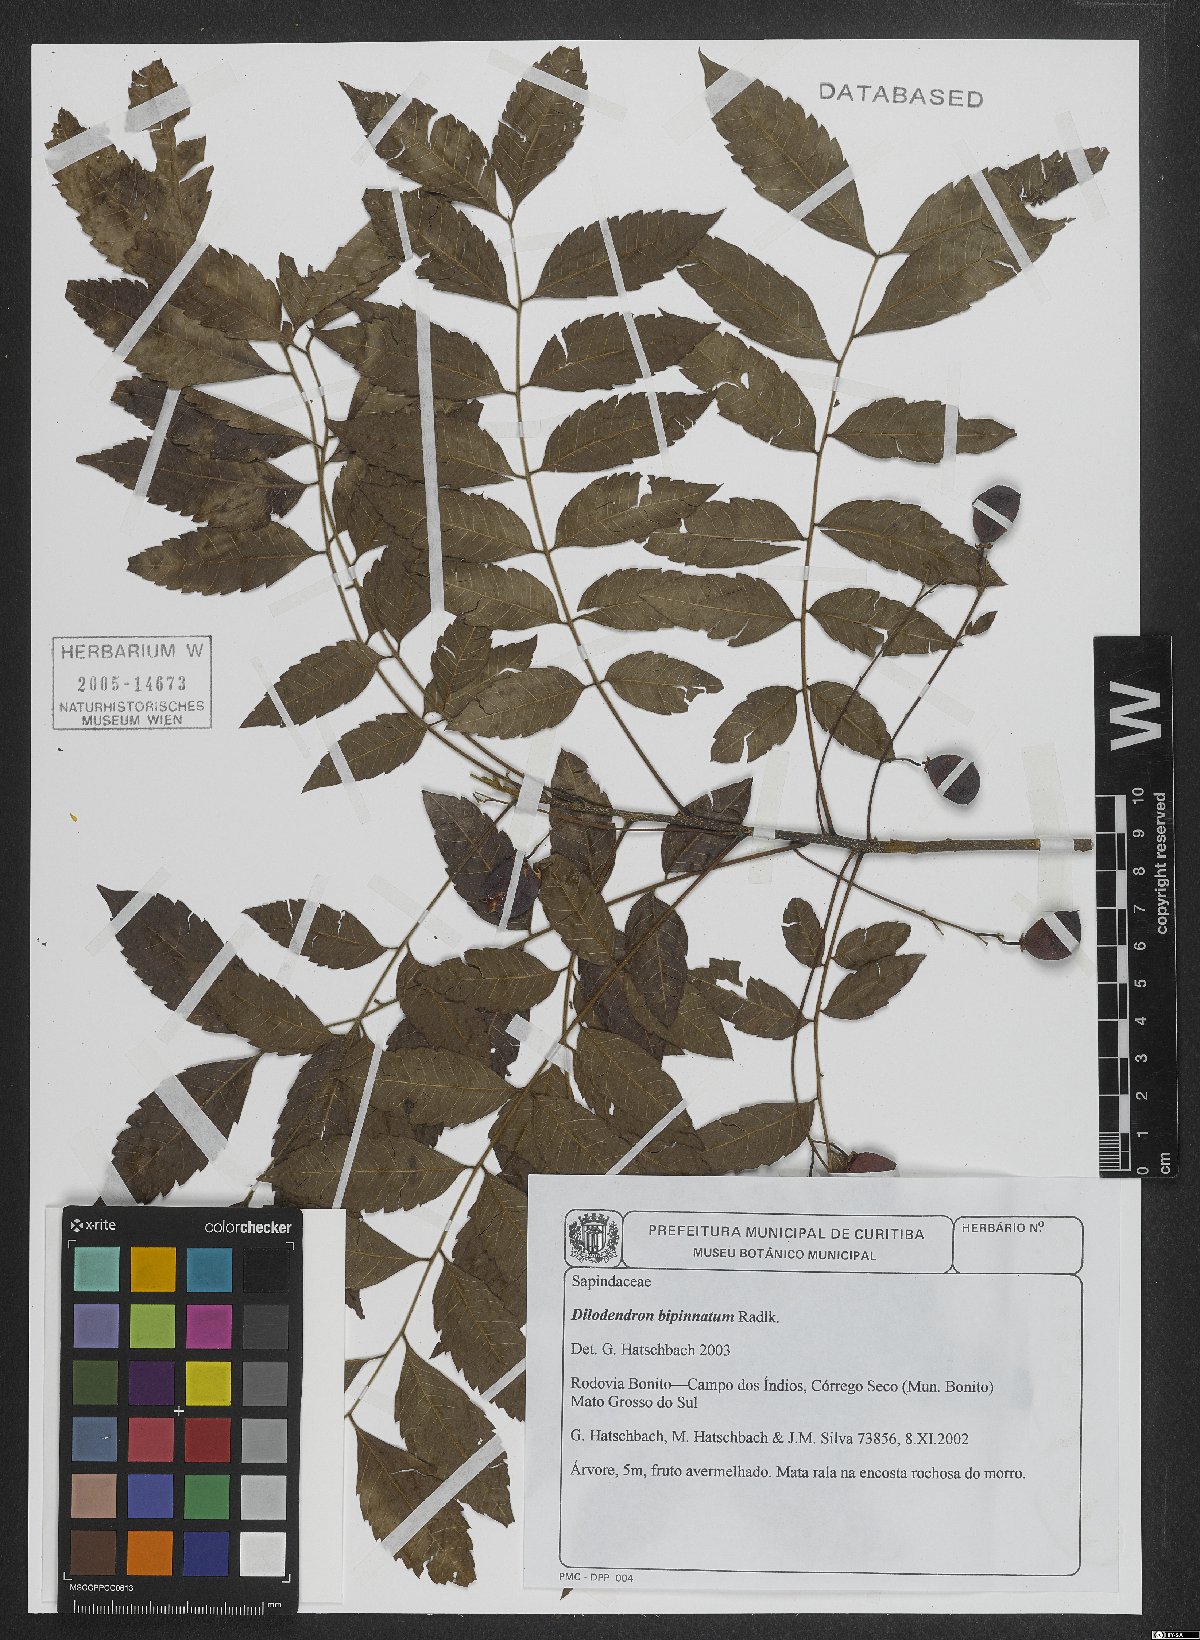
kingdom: Plantae
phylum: Tracheophyta
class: Magnoliopsida
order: Sapindales
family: Sapindaceae
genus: Dilodendron
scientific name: Dilodendron bipinnatum
